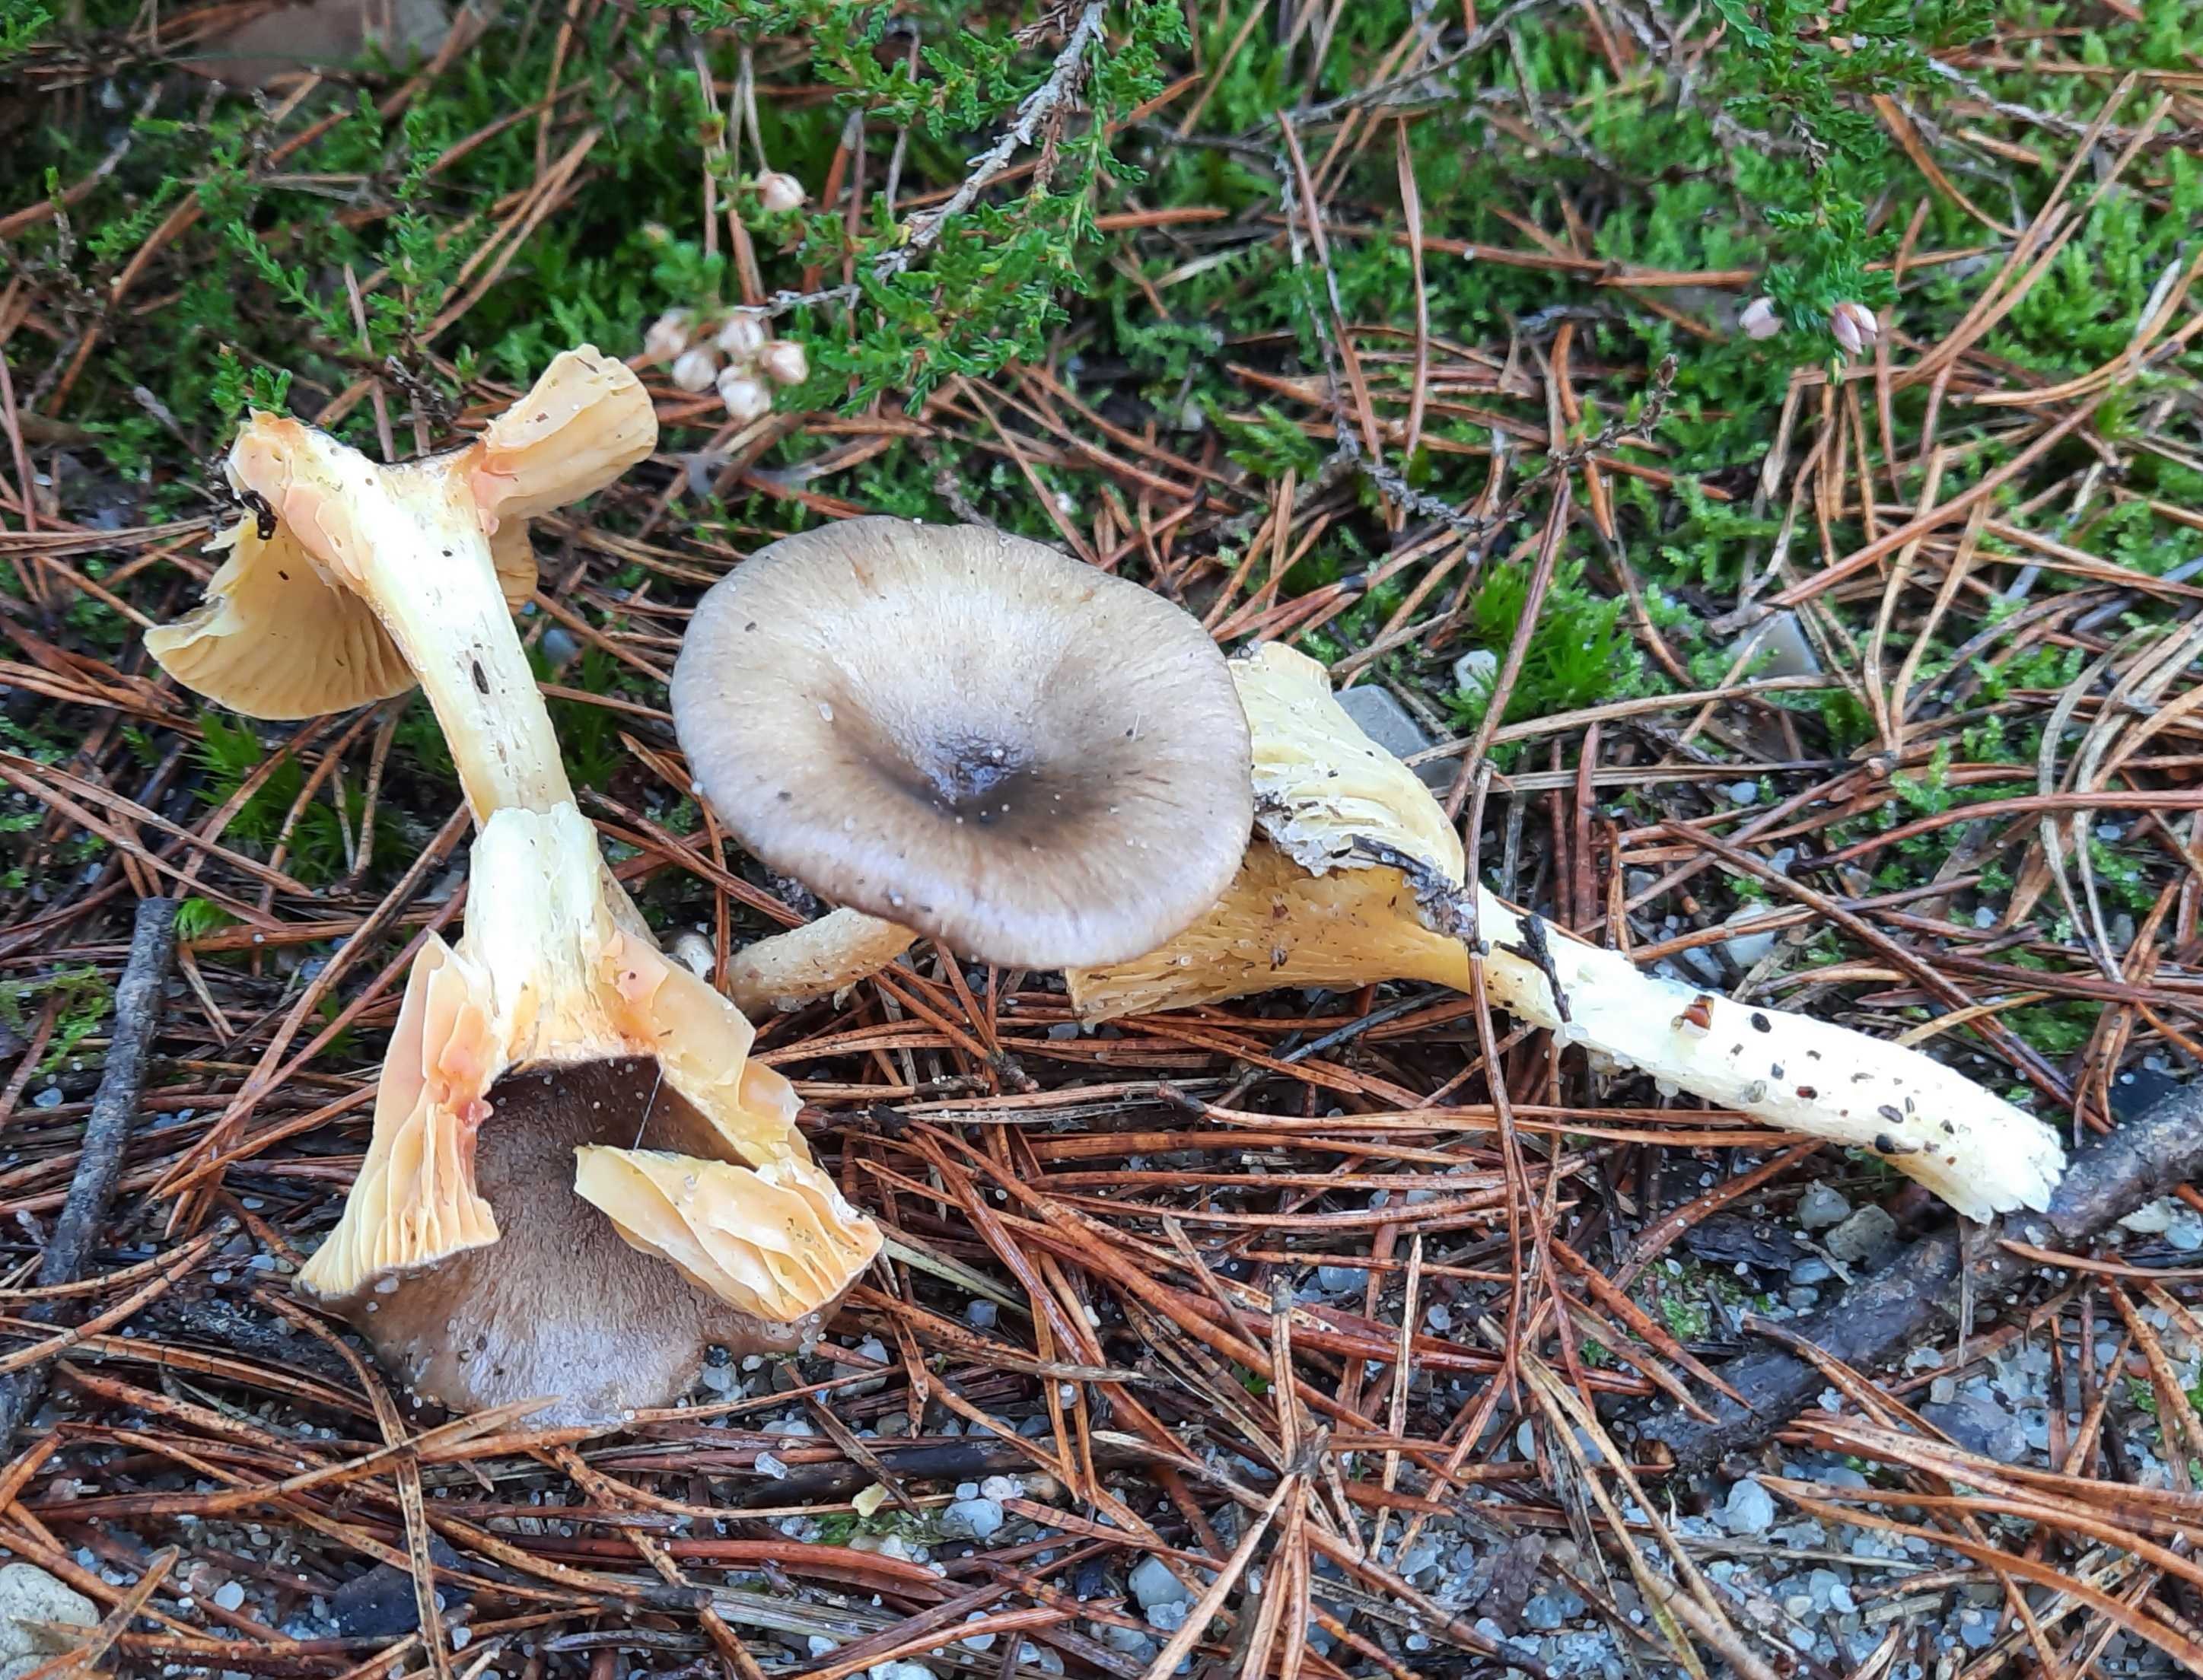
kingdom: Fungi
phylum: Basidiomycota
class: Agaricomycetes
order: Agaricales
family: Hygrophoraceae
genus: Hygrophorus
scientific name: Hygrophorus hypothejus
